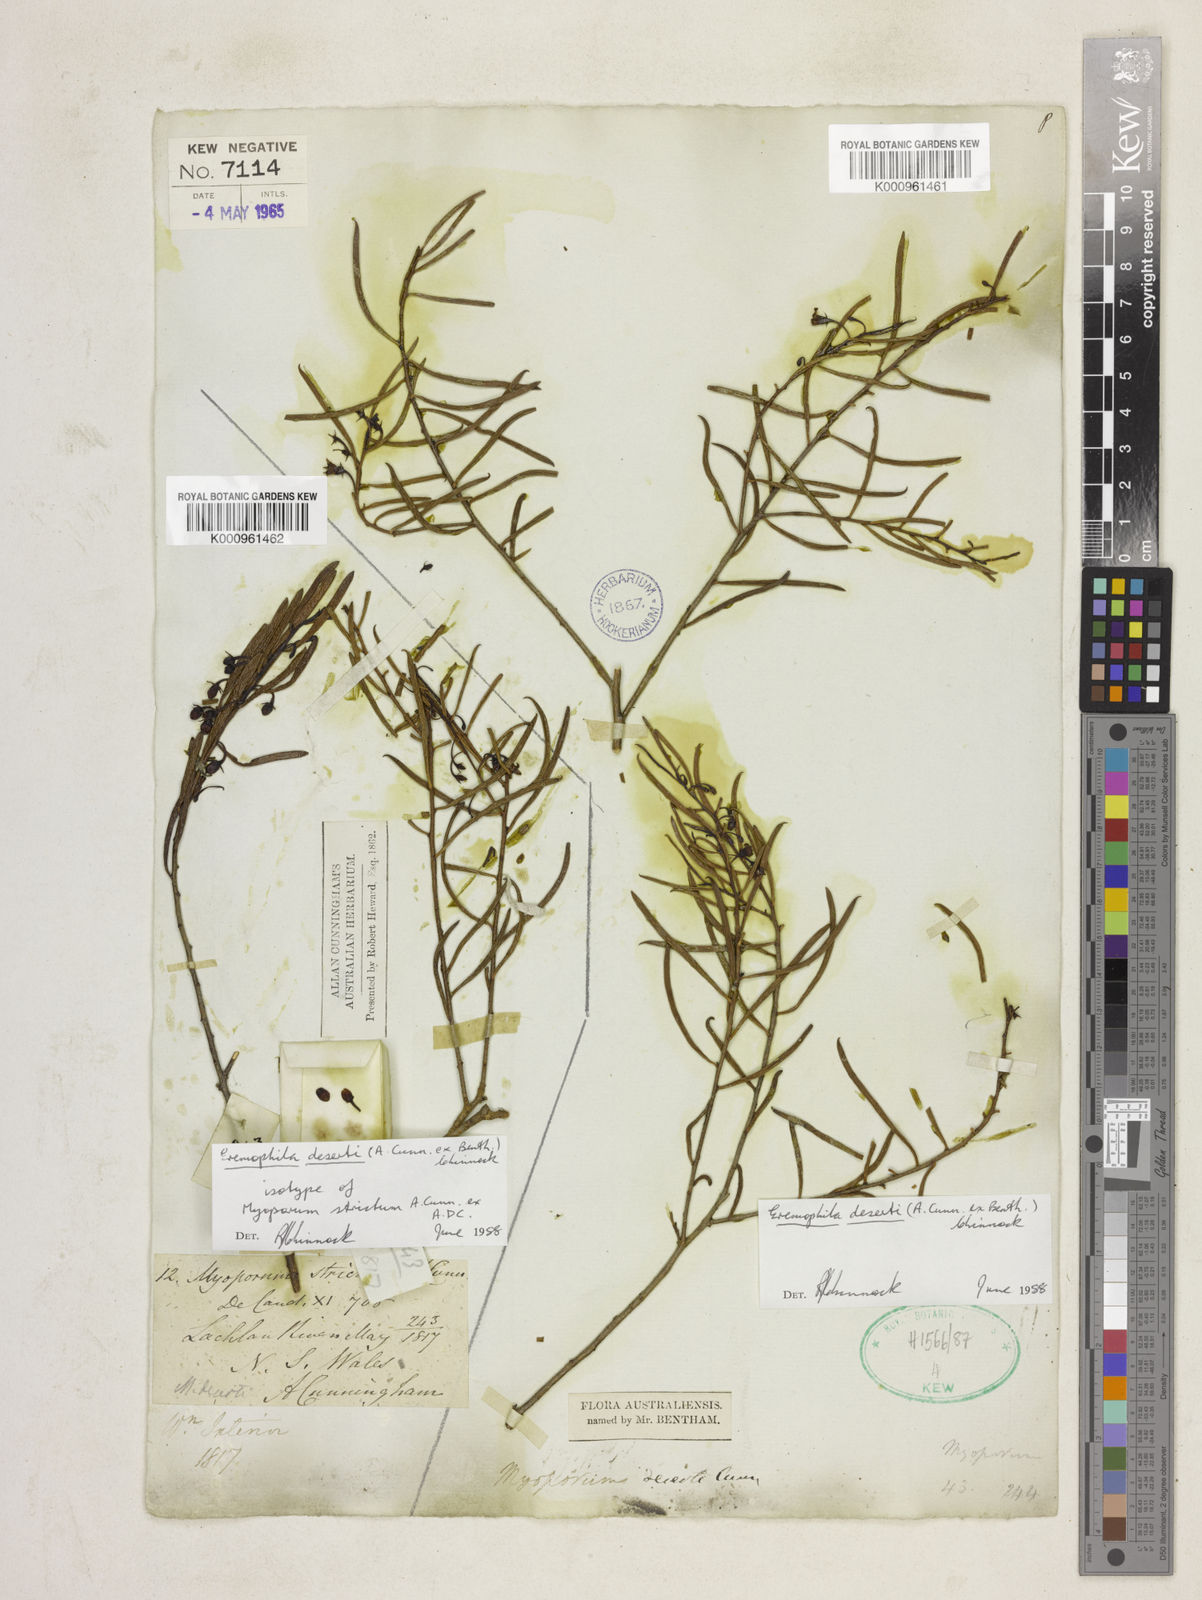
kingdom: Plantae
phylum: Tracheophyta
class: Magnoliopsida
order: Lamiales
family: Scrophulariaceae
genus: Eremophila
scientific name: Eremophila deserti
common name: Ellangowan-poisonbush
